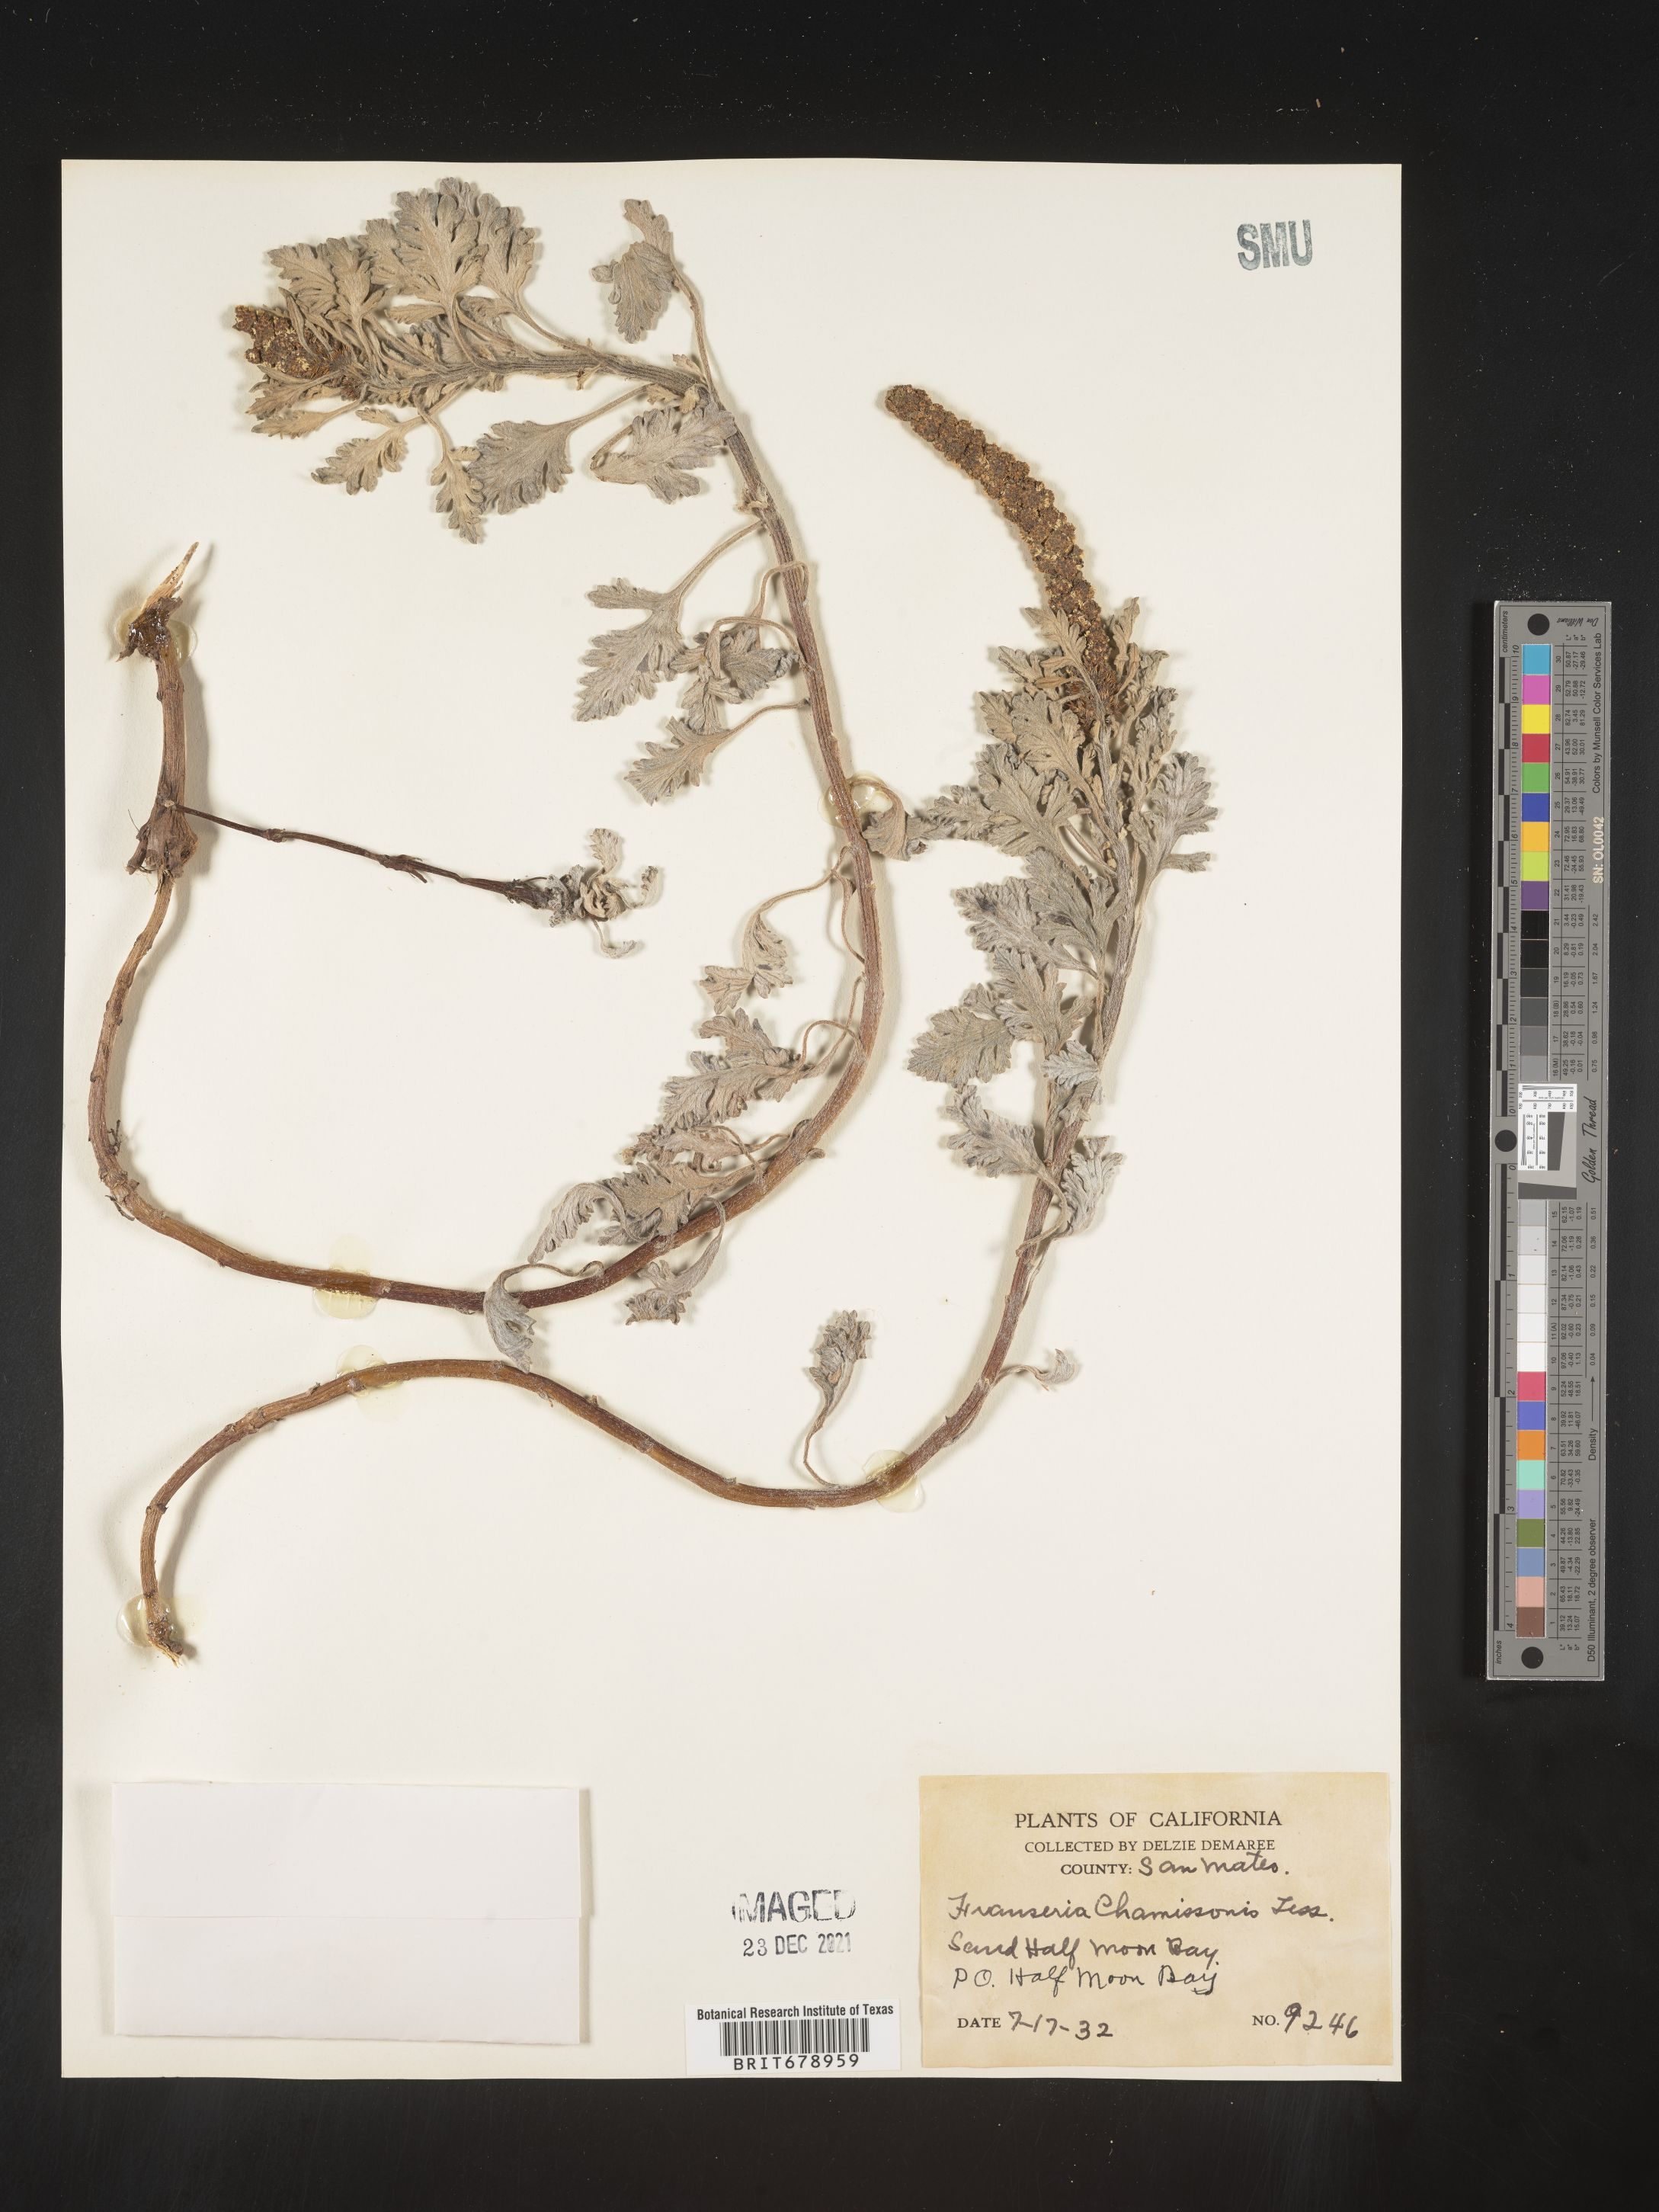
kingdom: Plantae
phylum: Tracheophyta
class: Magnoliopsida
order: Asterales
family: Asteraceae
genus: Ambrosia
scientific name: Ambrosia chamissonis
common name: Beachbur
